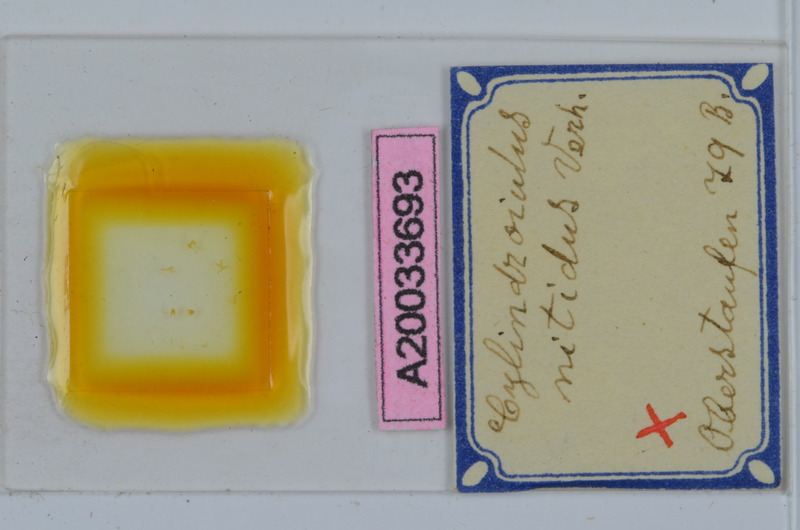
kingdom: Animalia
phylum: Arthropoda
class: Diplopoda
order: Julida
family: Julidae
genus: Allajulus
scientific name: Allajulus nitidus
